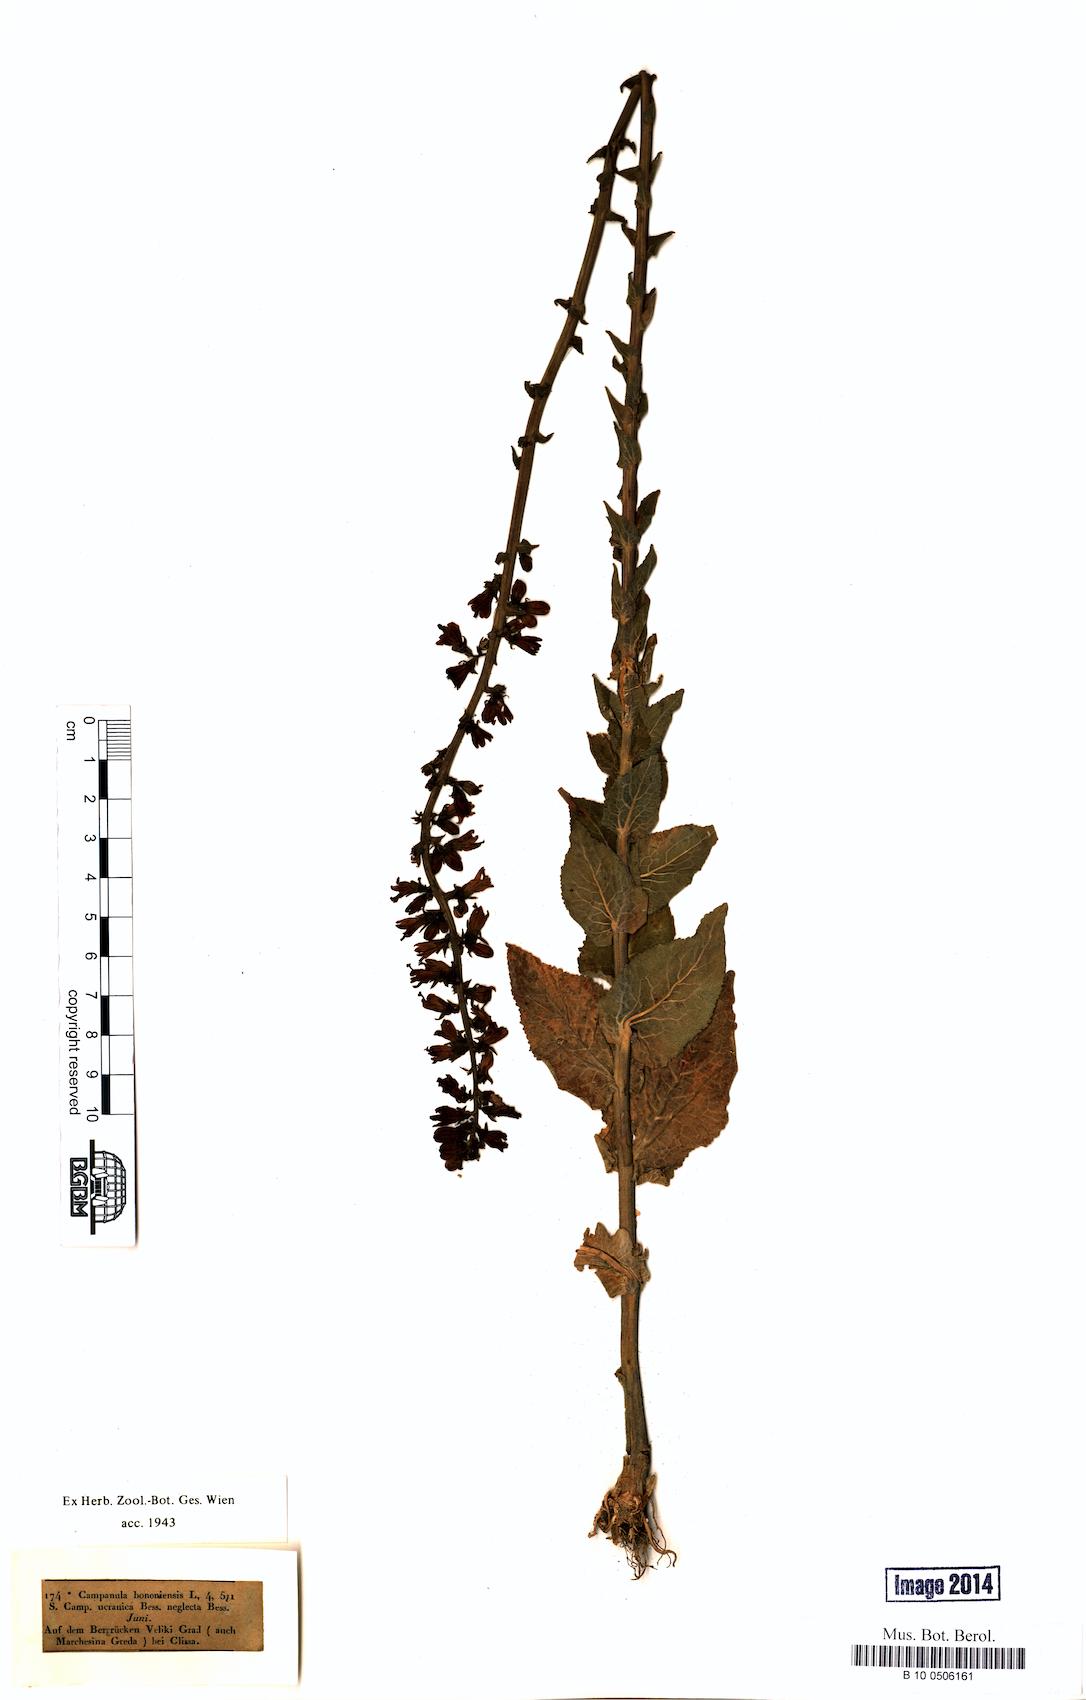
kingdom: Plantae
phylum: Tracheophyta
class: Magnoliopsida
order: Asterales
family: Campanulaceae
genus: Campanula
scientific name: Campanula bononiensis
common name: Pale bellflower
